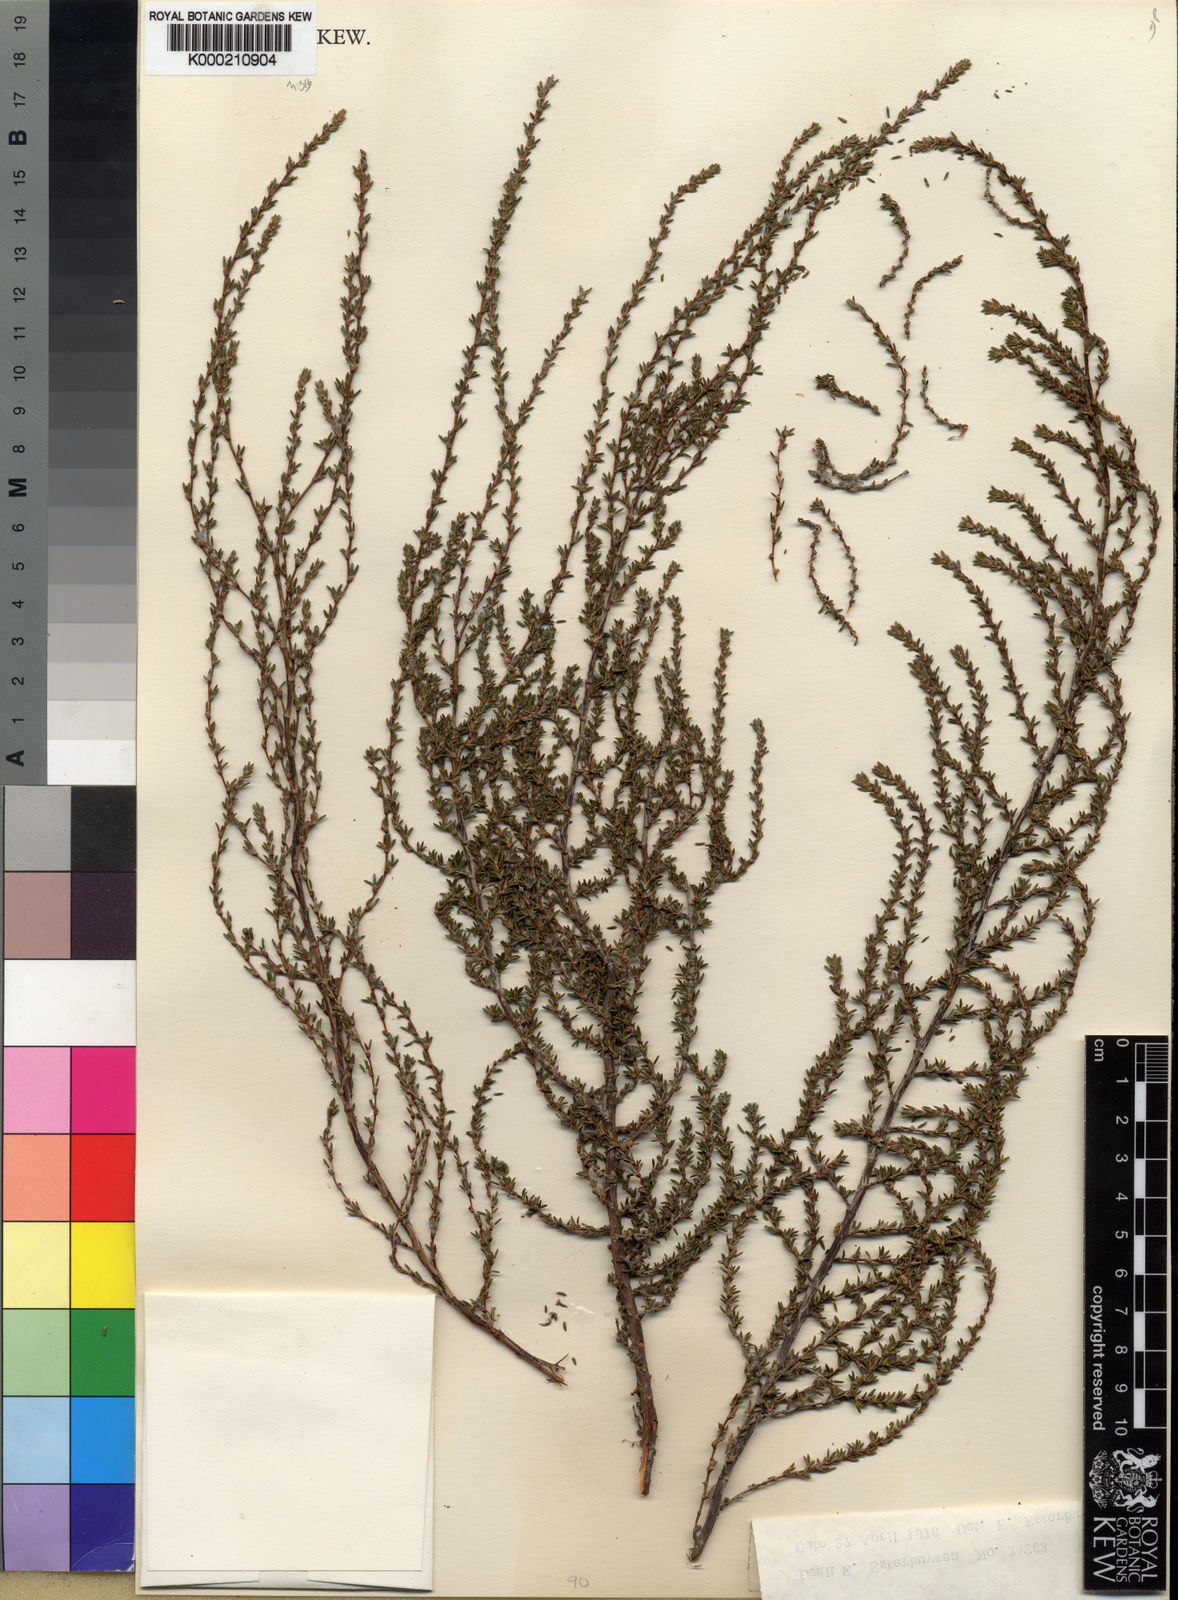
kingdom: Plantae
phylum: Tracheophyta
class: Magnoliopsida
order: Rosales
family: Rosaceae
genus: Cliffortia
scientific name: Cliffortia ericifolia
